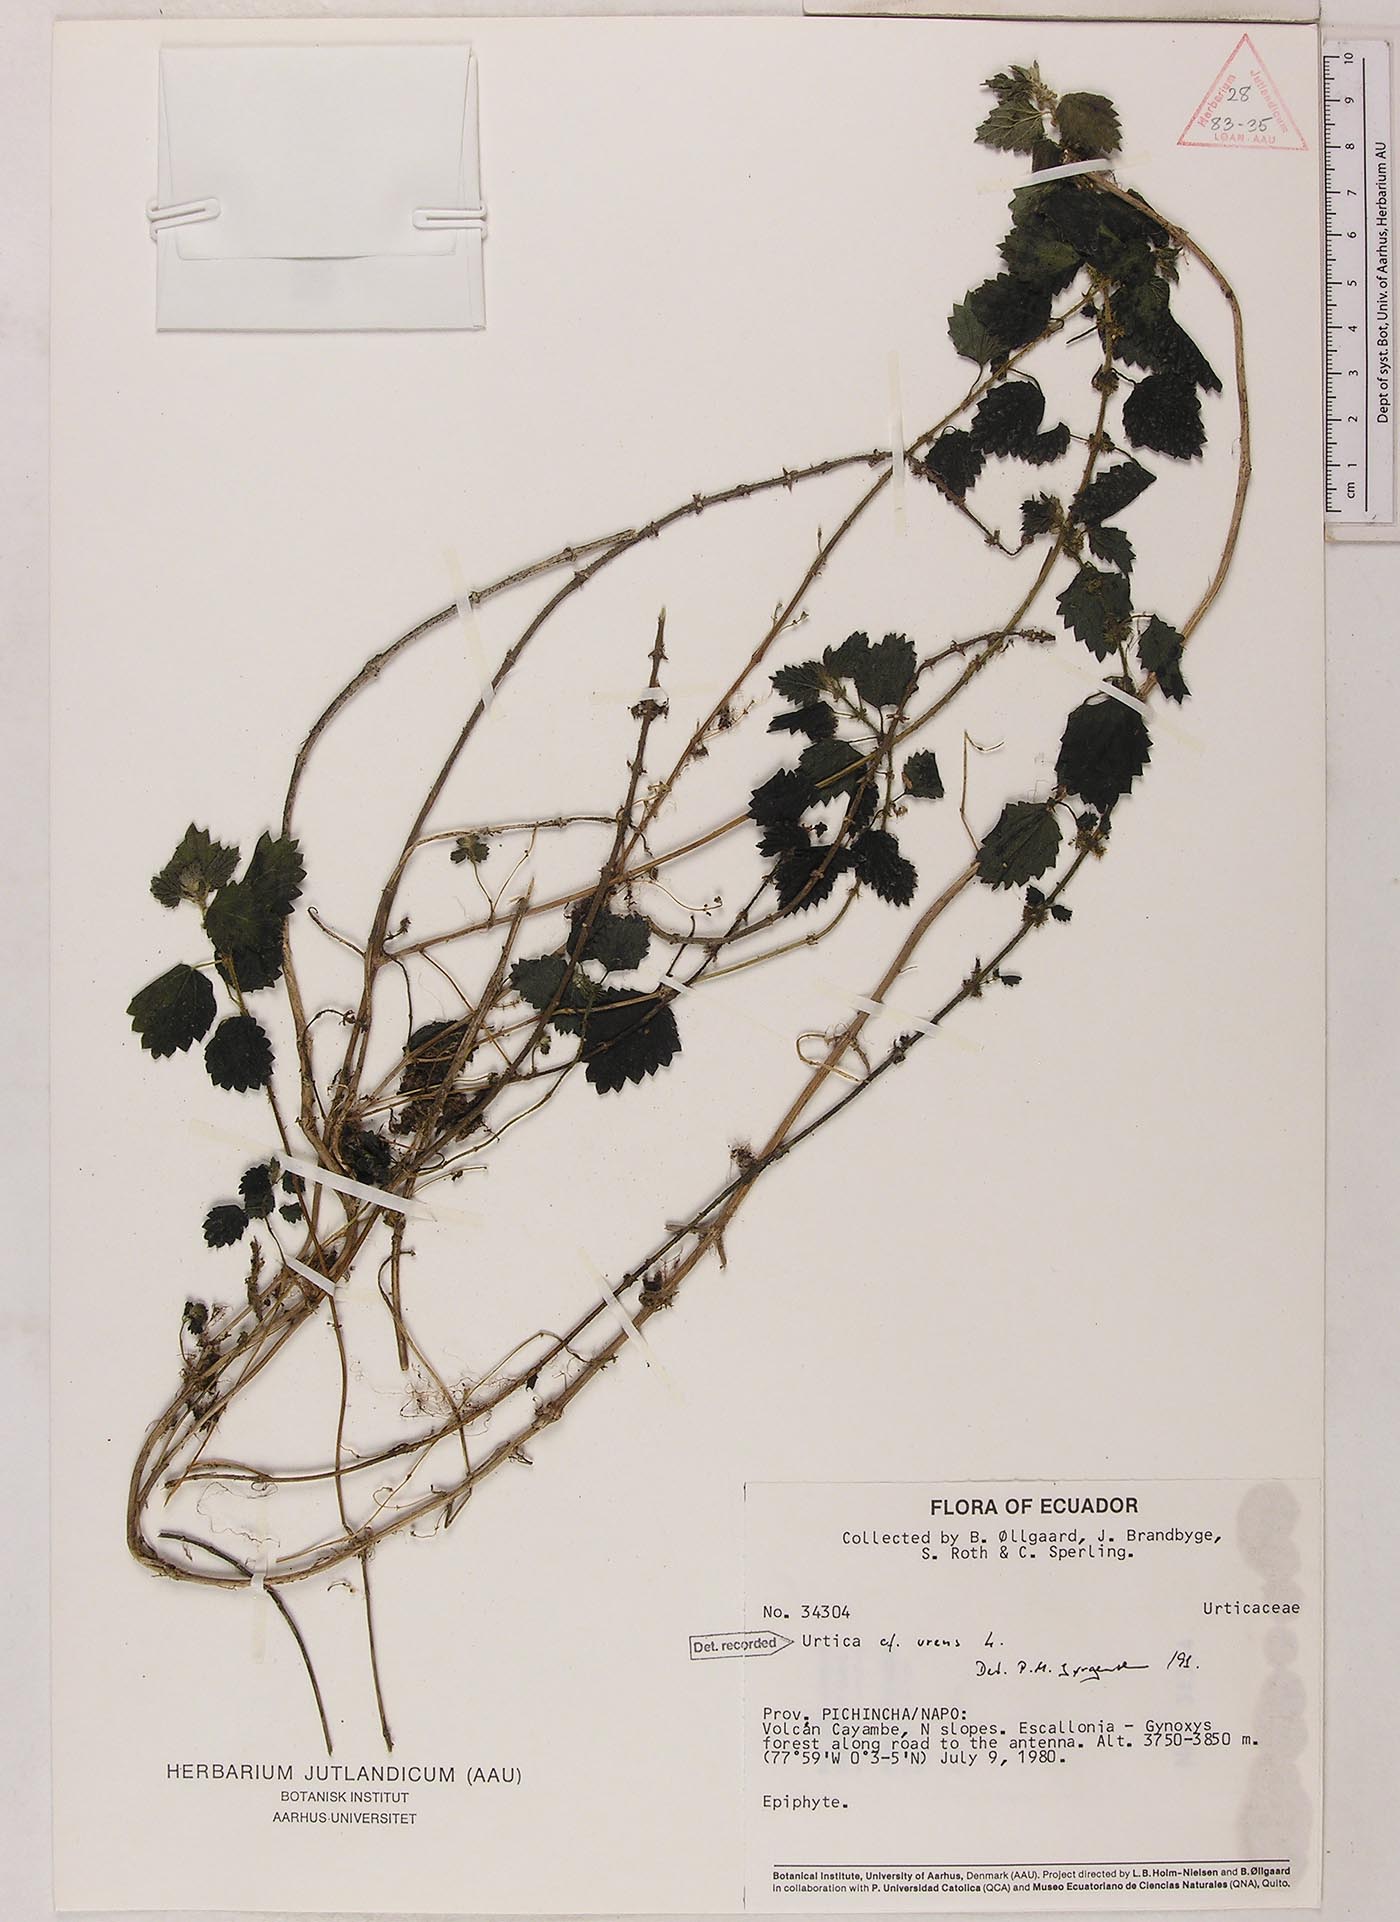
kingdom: Plantae
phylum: Tracheophyta
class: Magnoliopsida
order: Rosales
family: Urticaceae
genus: Urtica
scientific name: Urtica echinata
